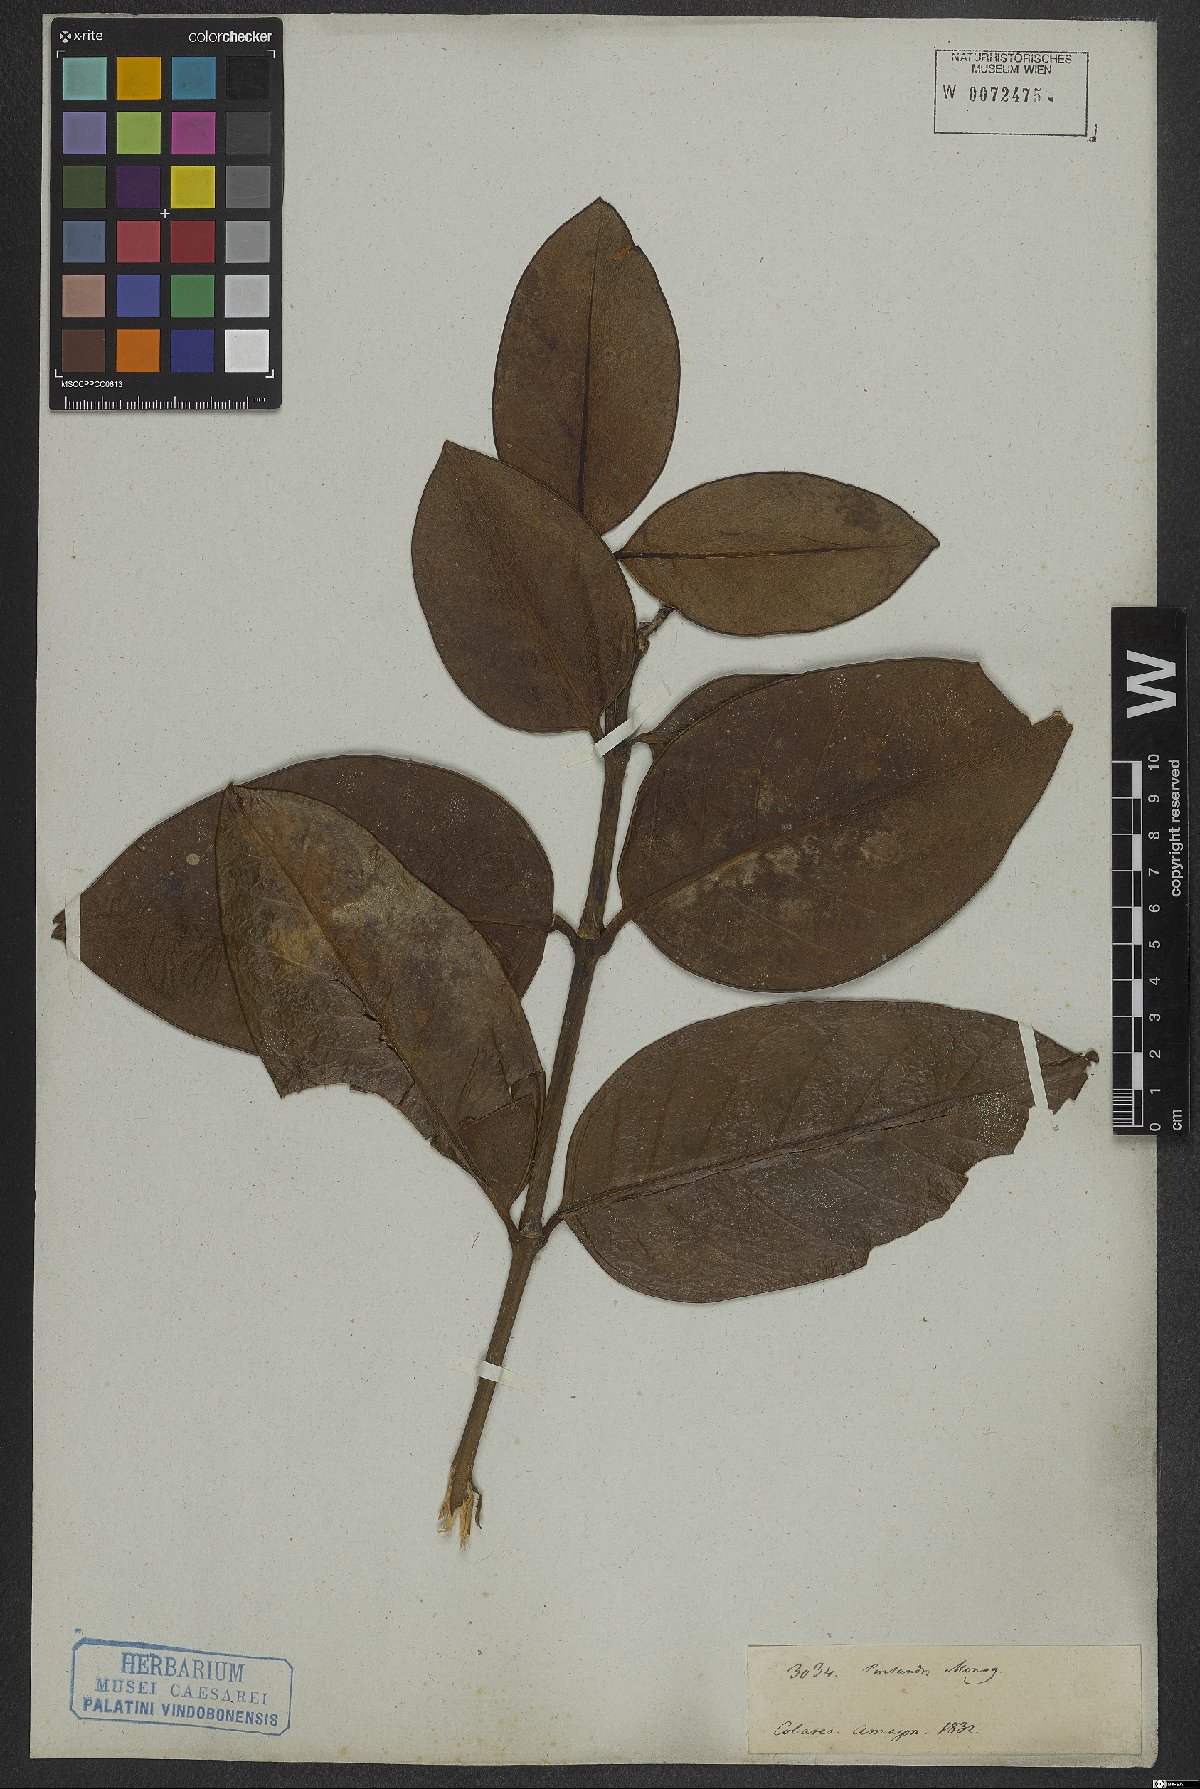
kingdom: Plantae
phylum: Tracheophyta
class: Magnoliopsida
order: Gentianales
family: Rubiaceae
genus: Posoqueria
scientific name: Posoqueria
